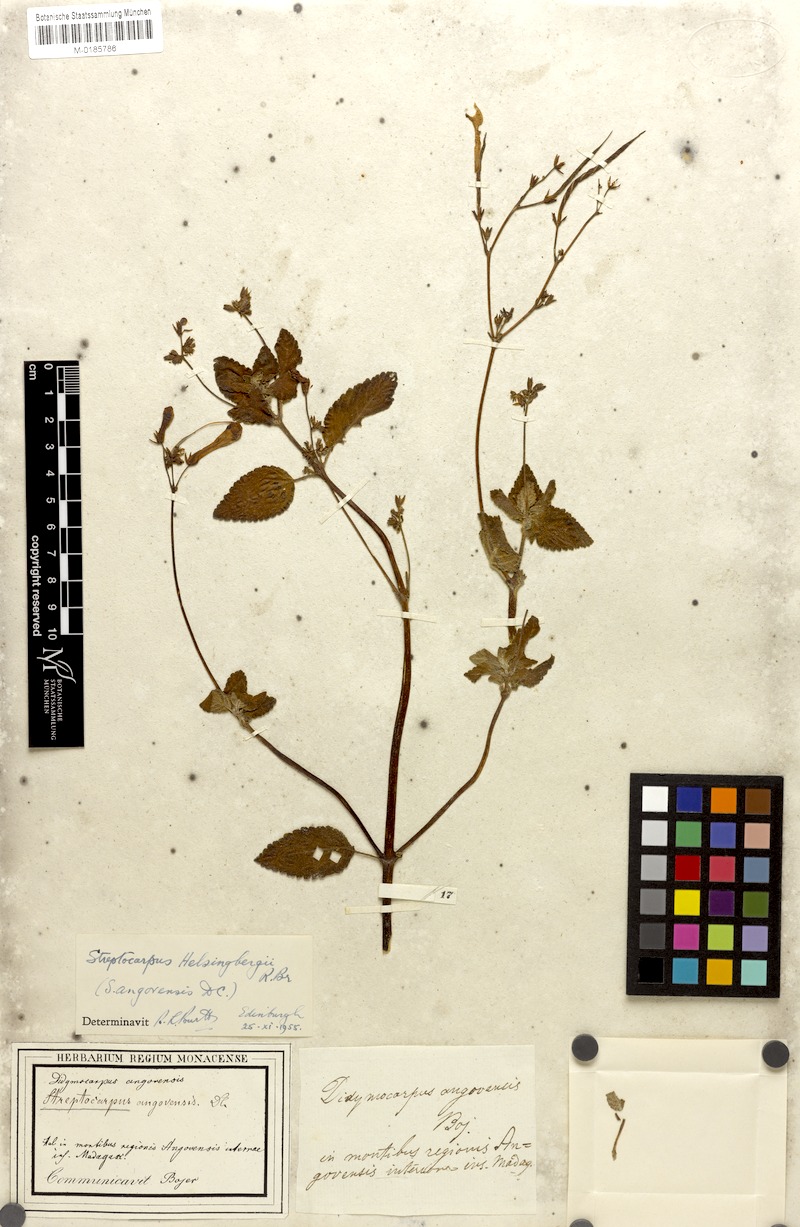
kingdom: Plantae
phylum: Tracheophyta
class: Magnoliopsida
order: Lamiales
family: Gesneriaceae
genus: Streptocarpus
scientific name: Streptocarpus hilsenbergii
